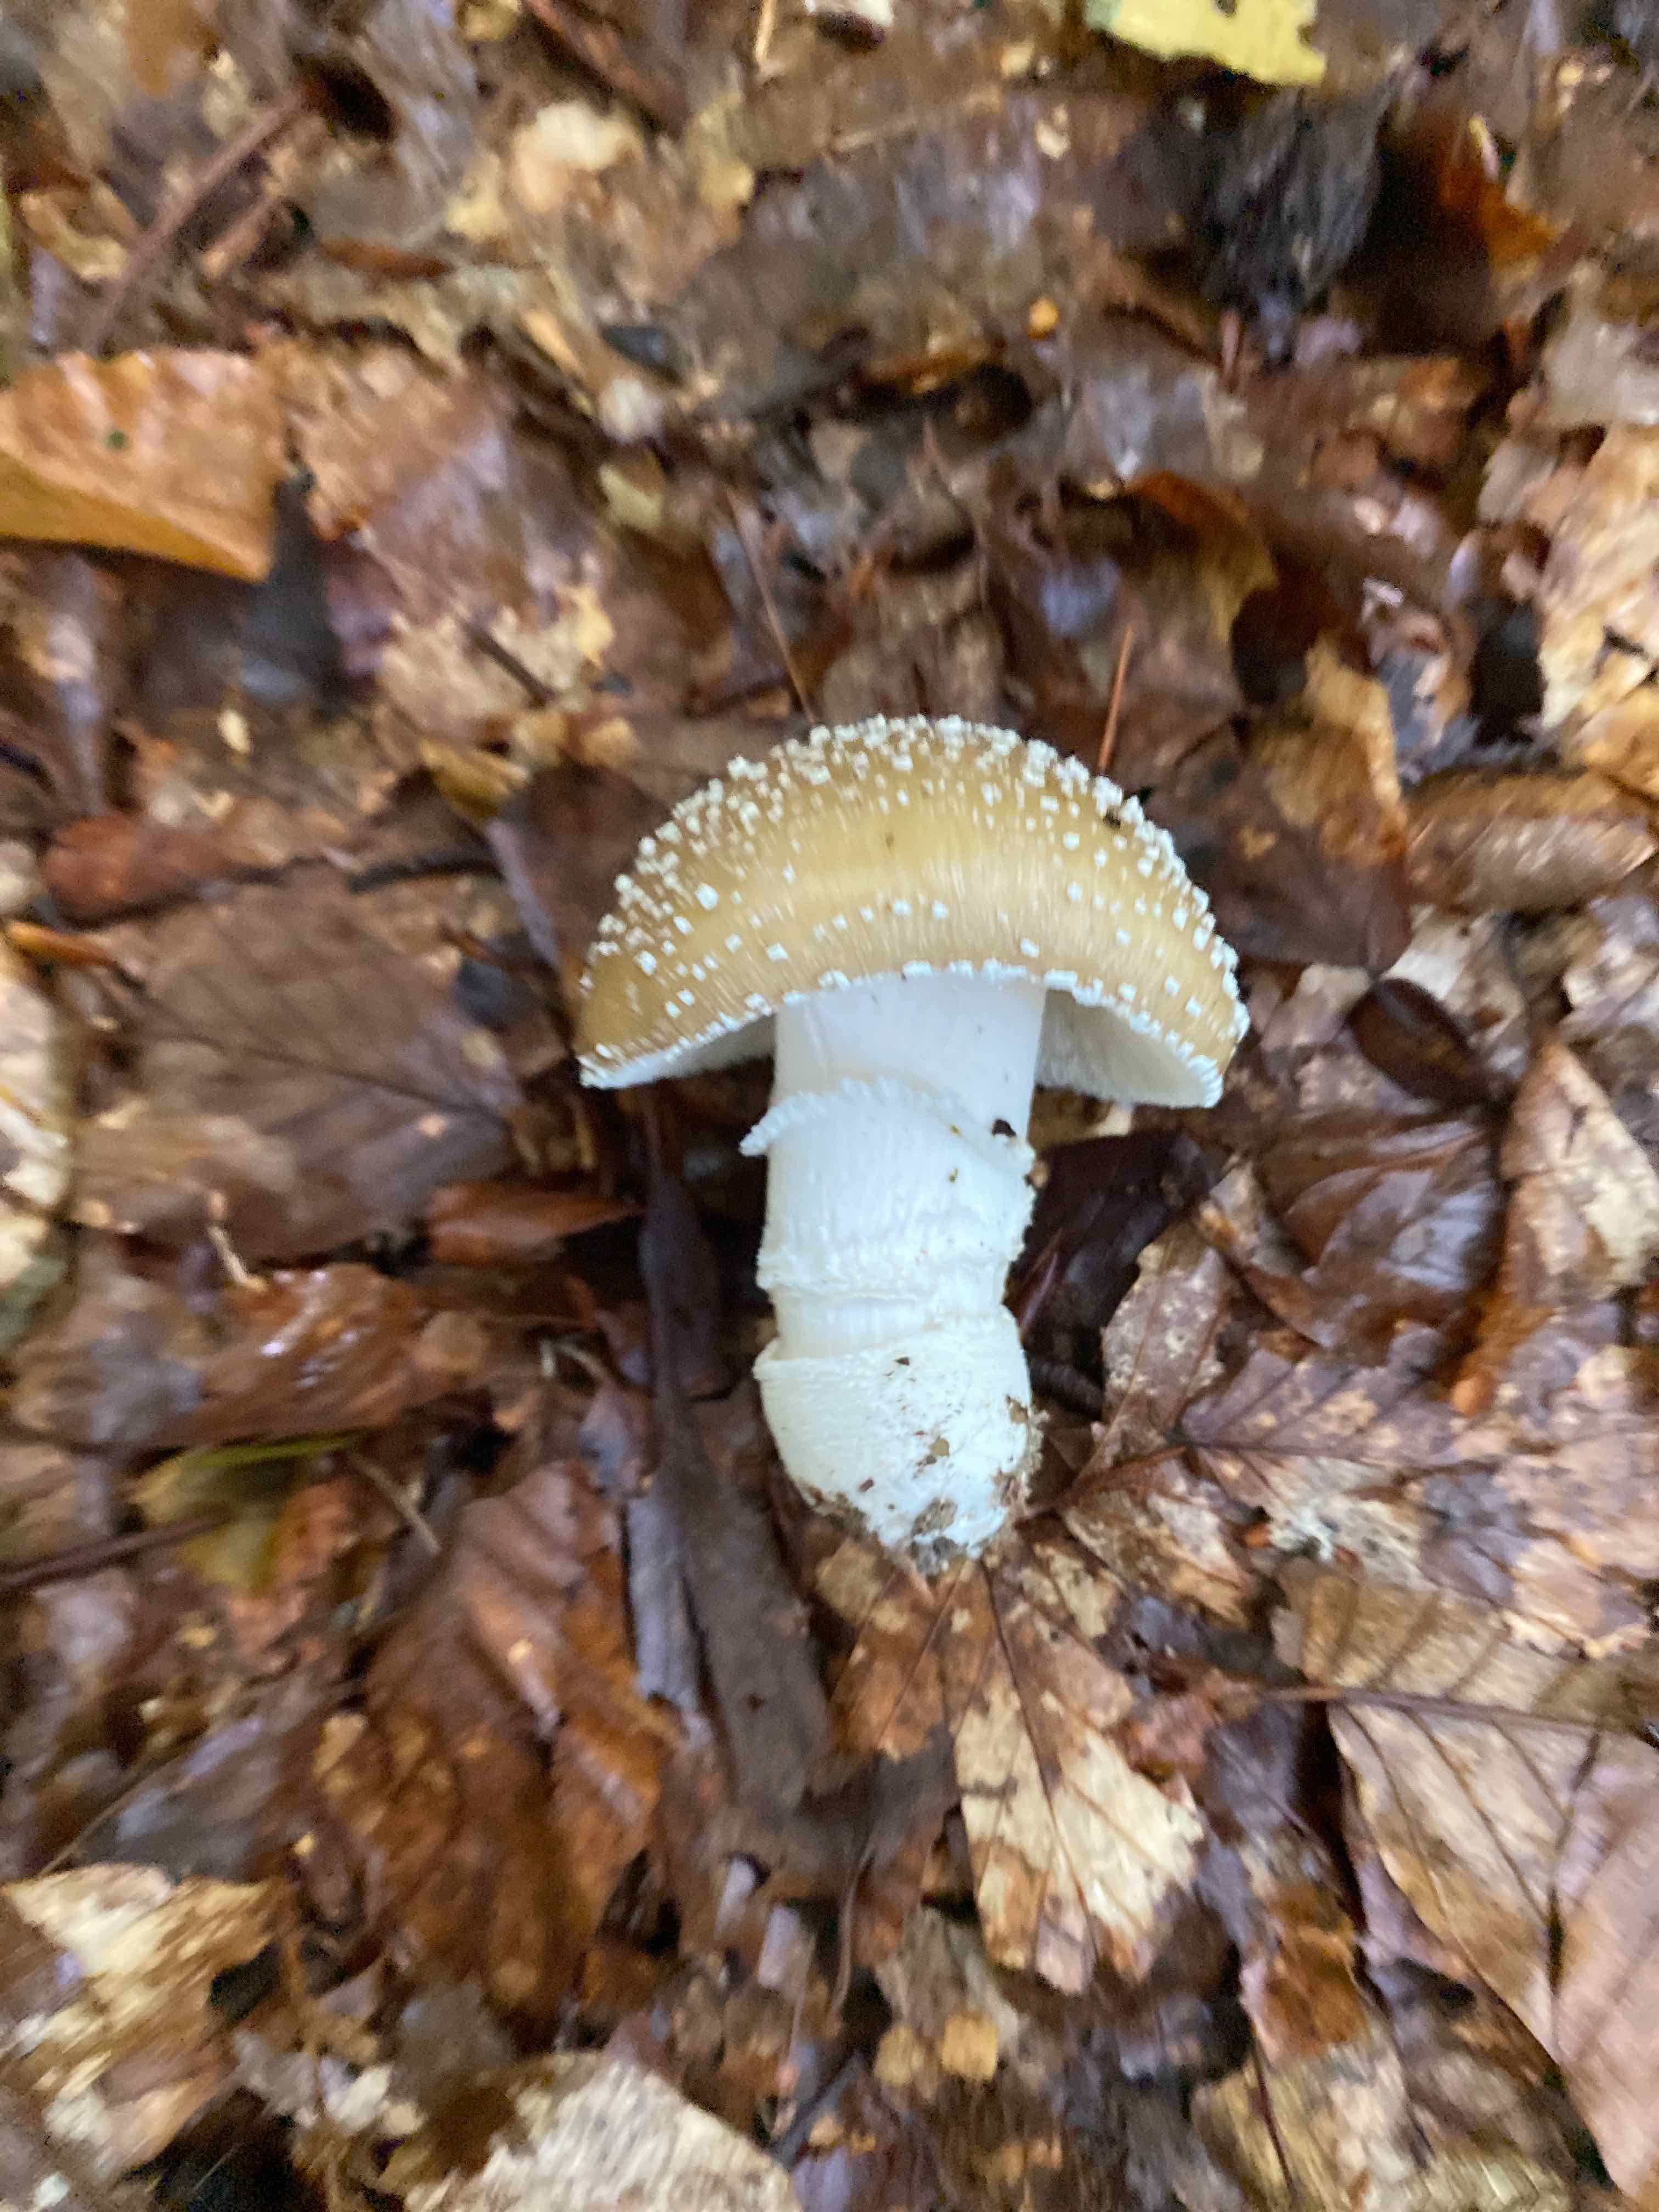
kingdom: Fungi
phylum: Basidiomycota
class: Agaricomycetes
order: Agaricales
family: Amanitaceae
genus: Amanita
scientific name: Amanita pantherina
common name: panter-fluesvamp
